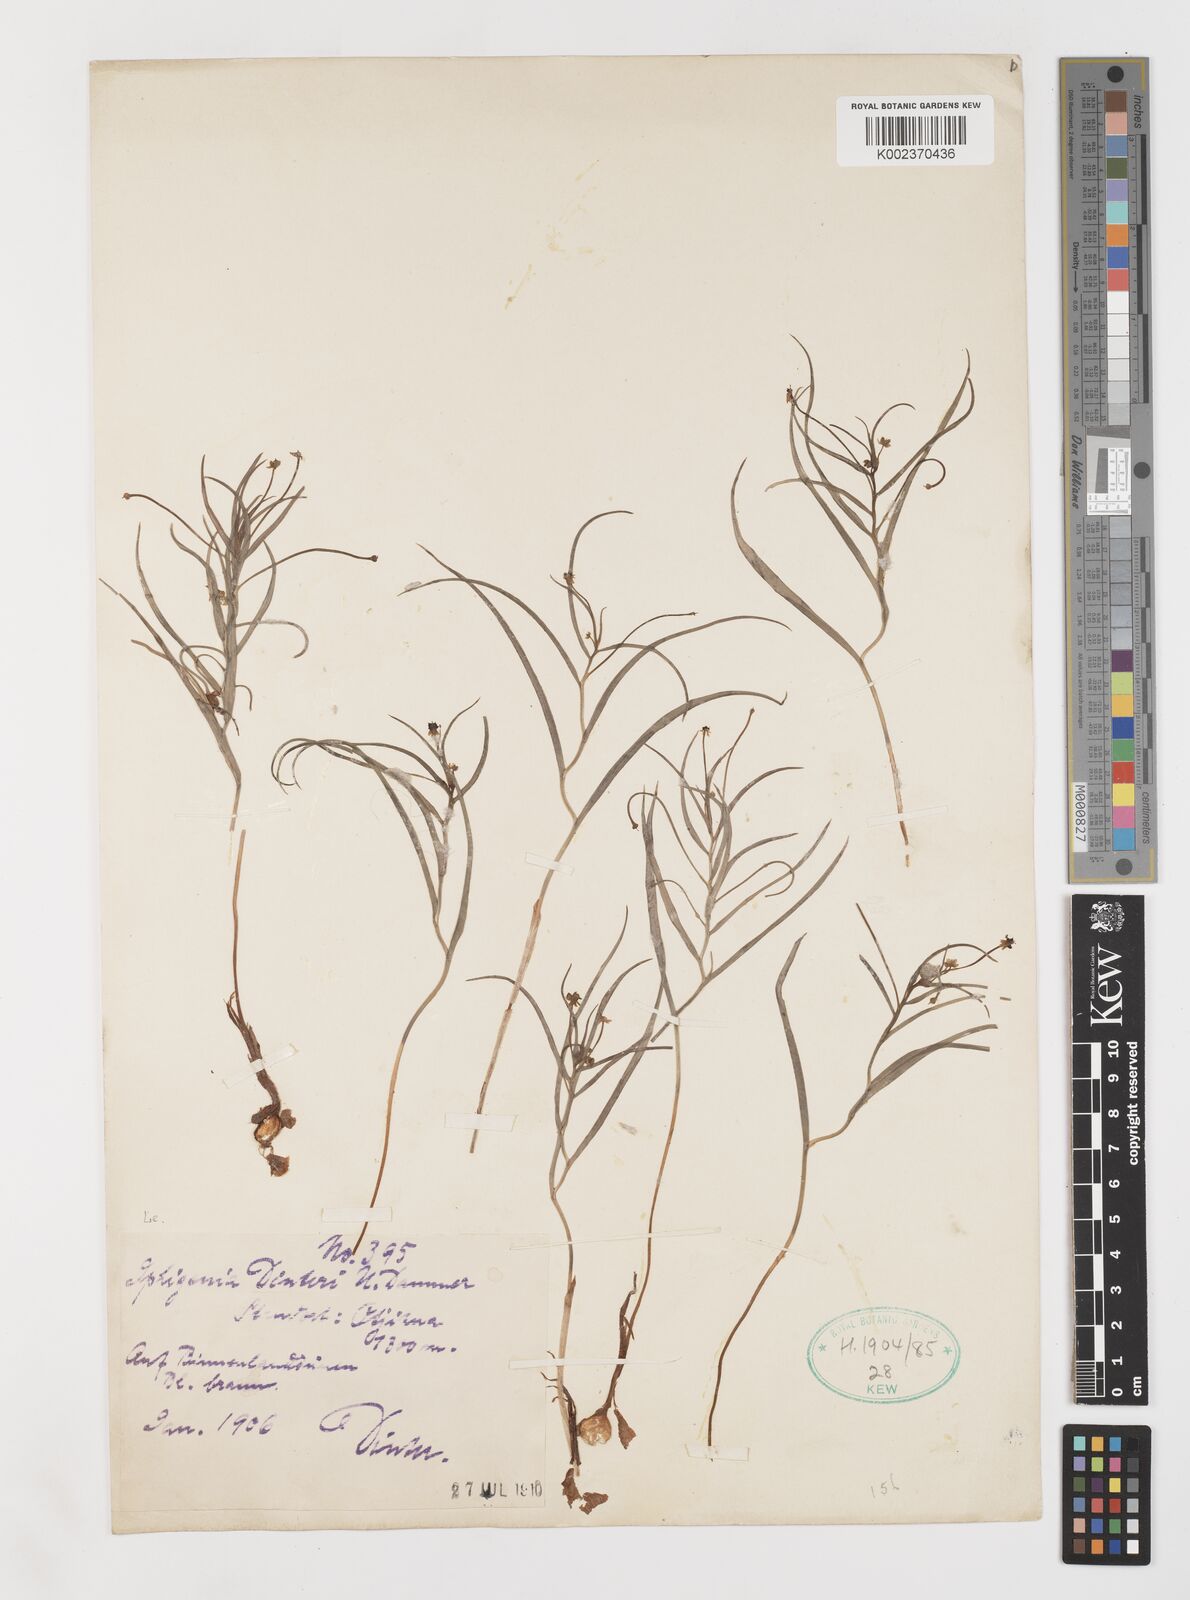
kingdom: Plantae
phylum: Tracheophyta
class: Liliopsida
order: Liliales
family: Colchicaceae
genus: Camptorrhiza
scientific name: Camptorrhiza
